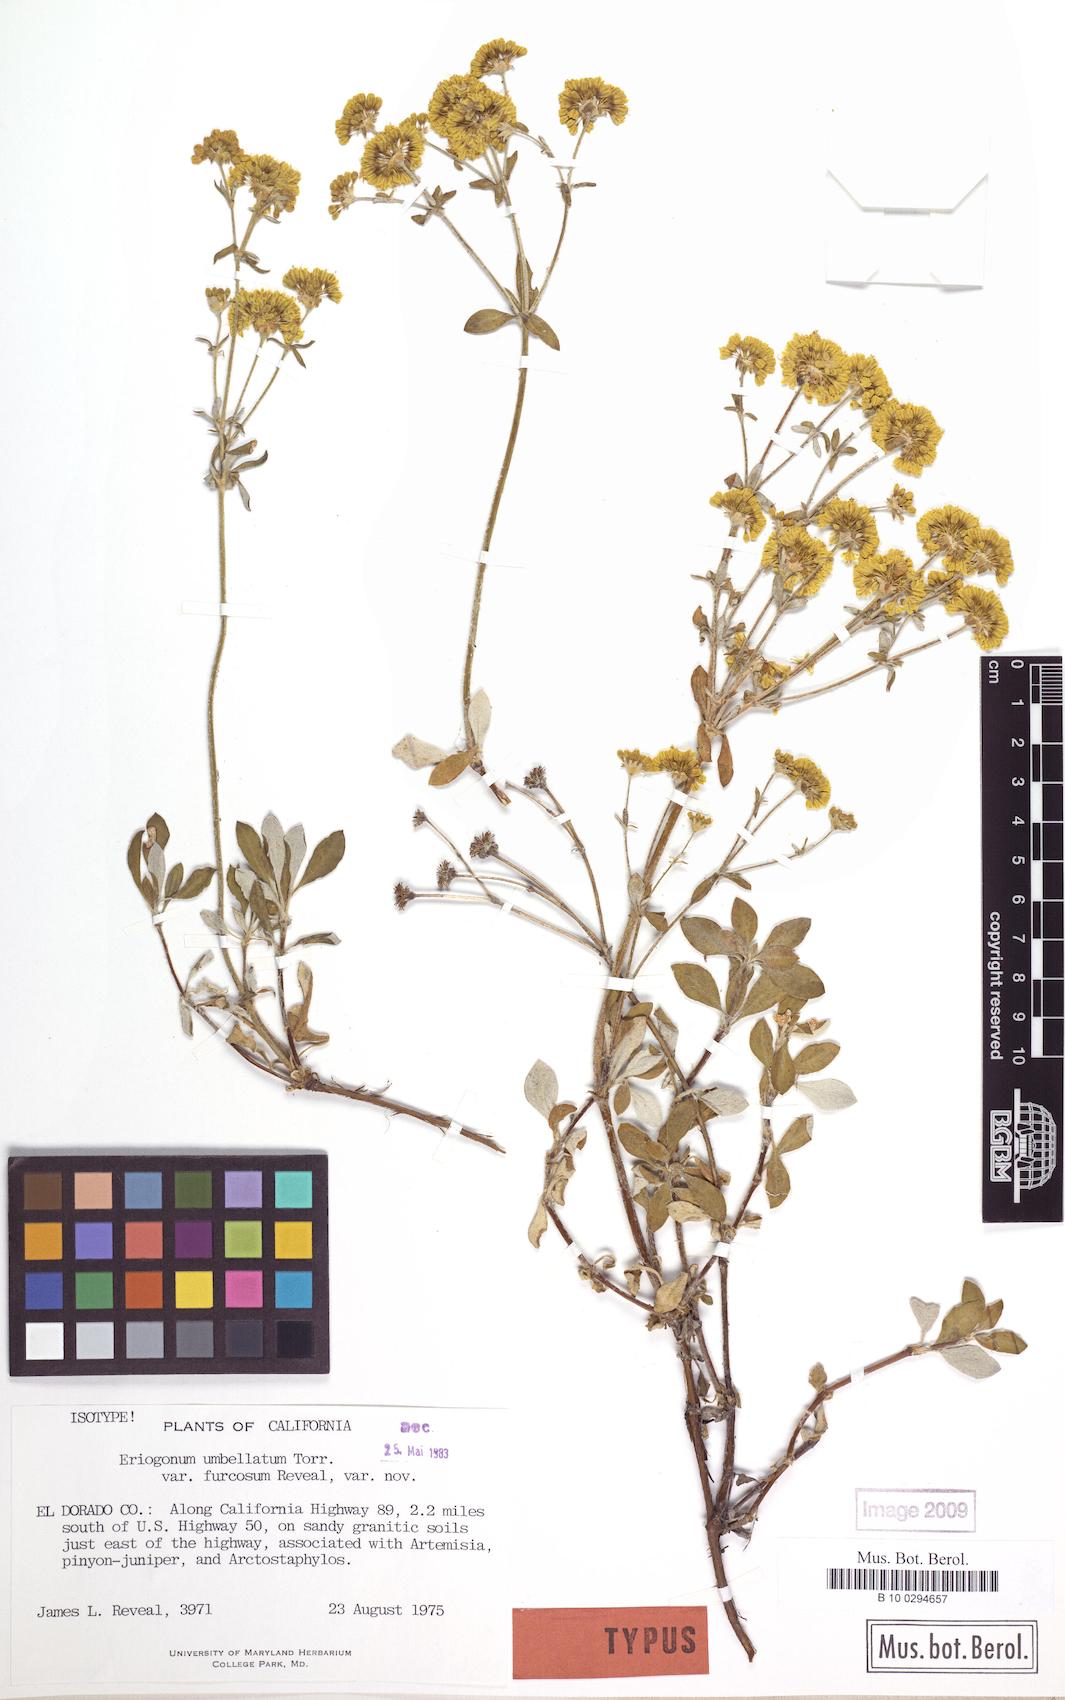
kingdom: Plantae
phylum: Tracheophyta
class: Magnoliopsida
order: Caryophyllales
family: Polygonaceae
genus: Eriogonum
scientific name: Eriogonum umbellatum
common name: Sulfur-buckwheat
